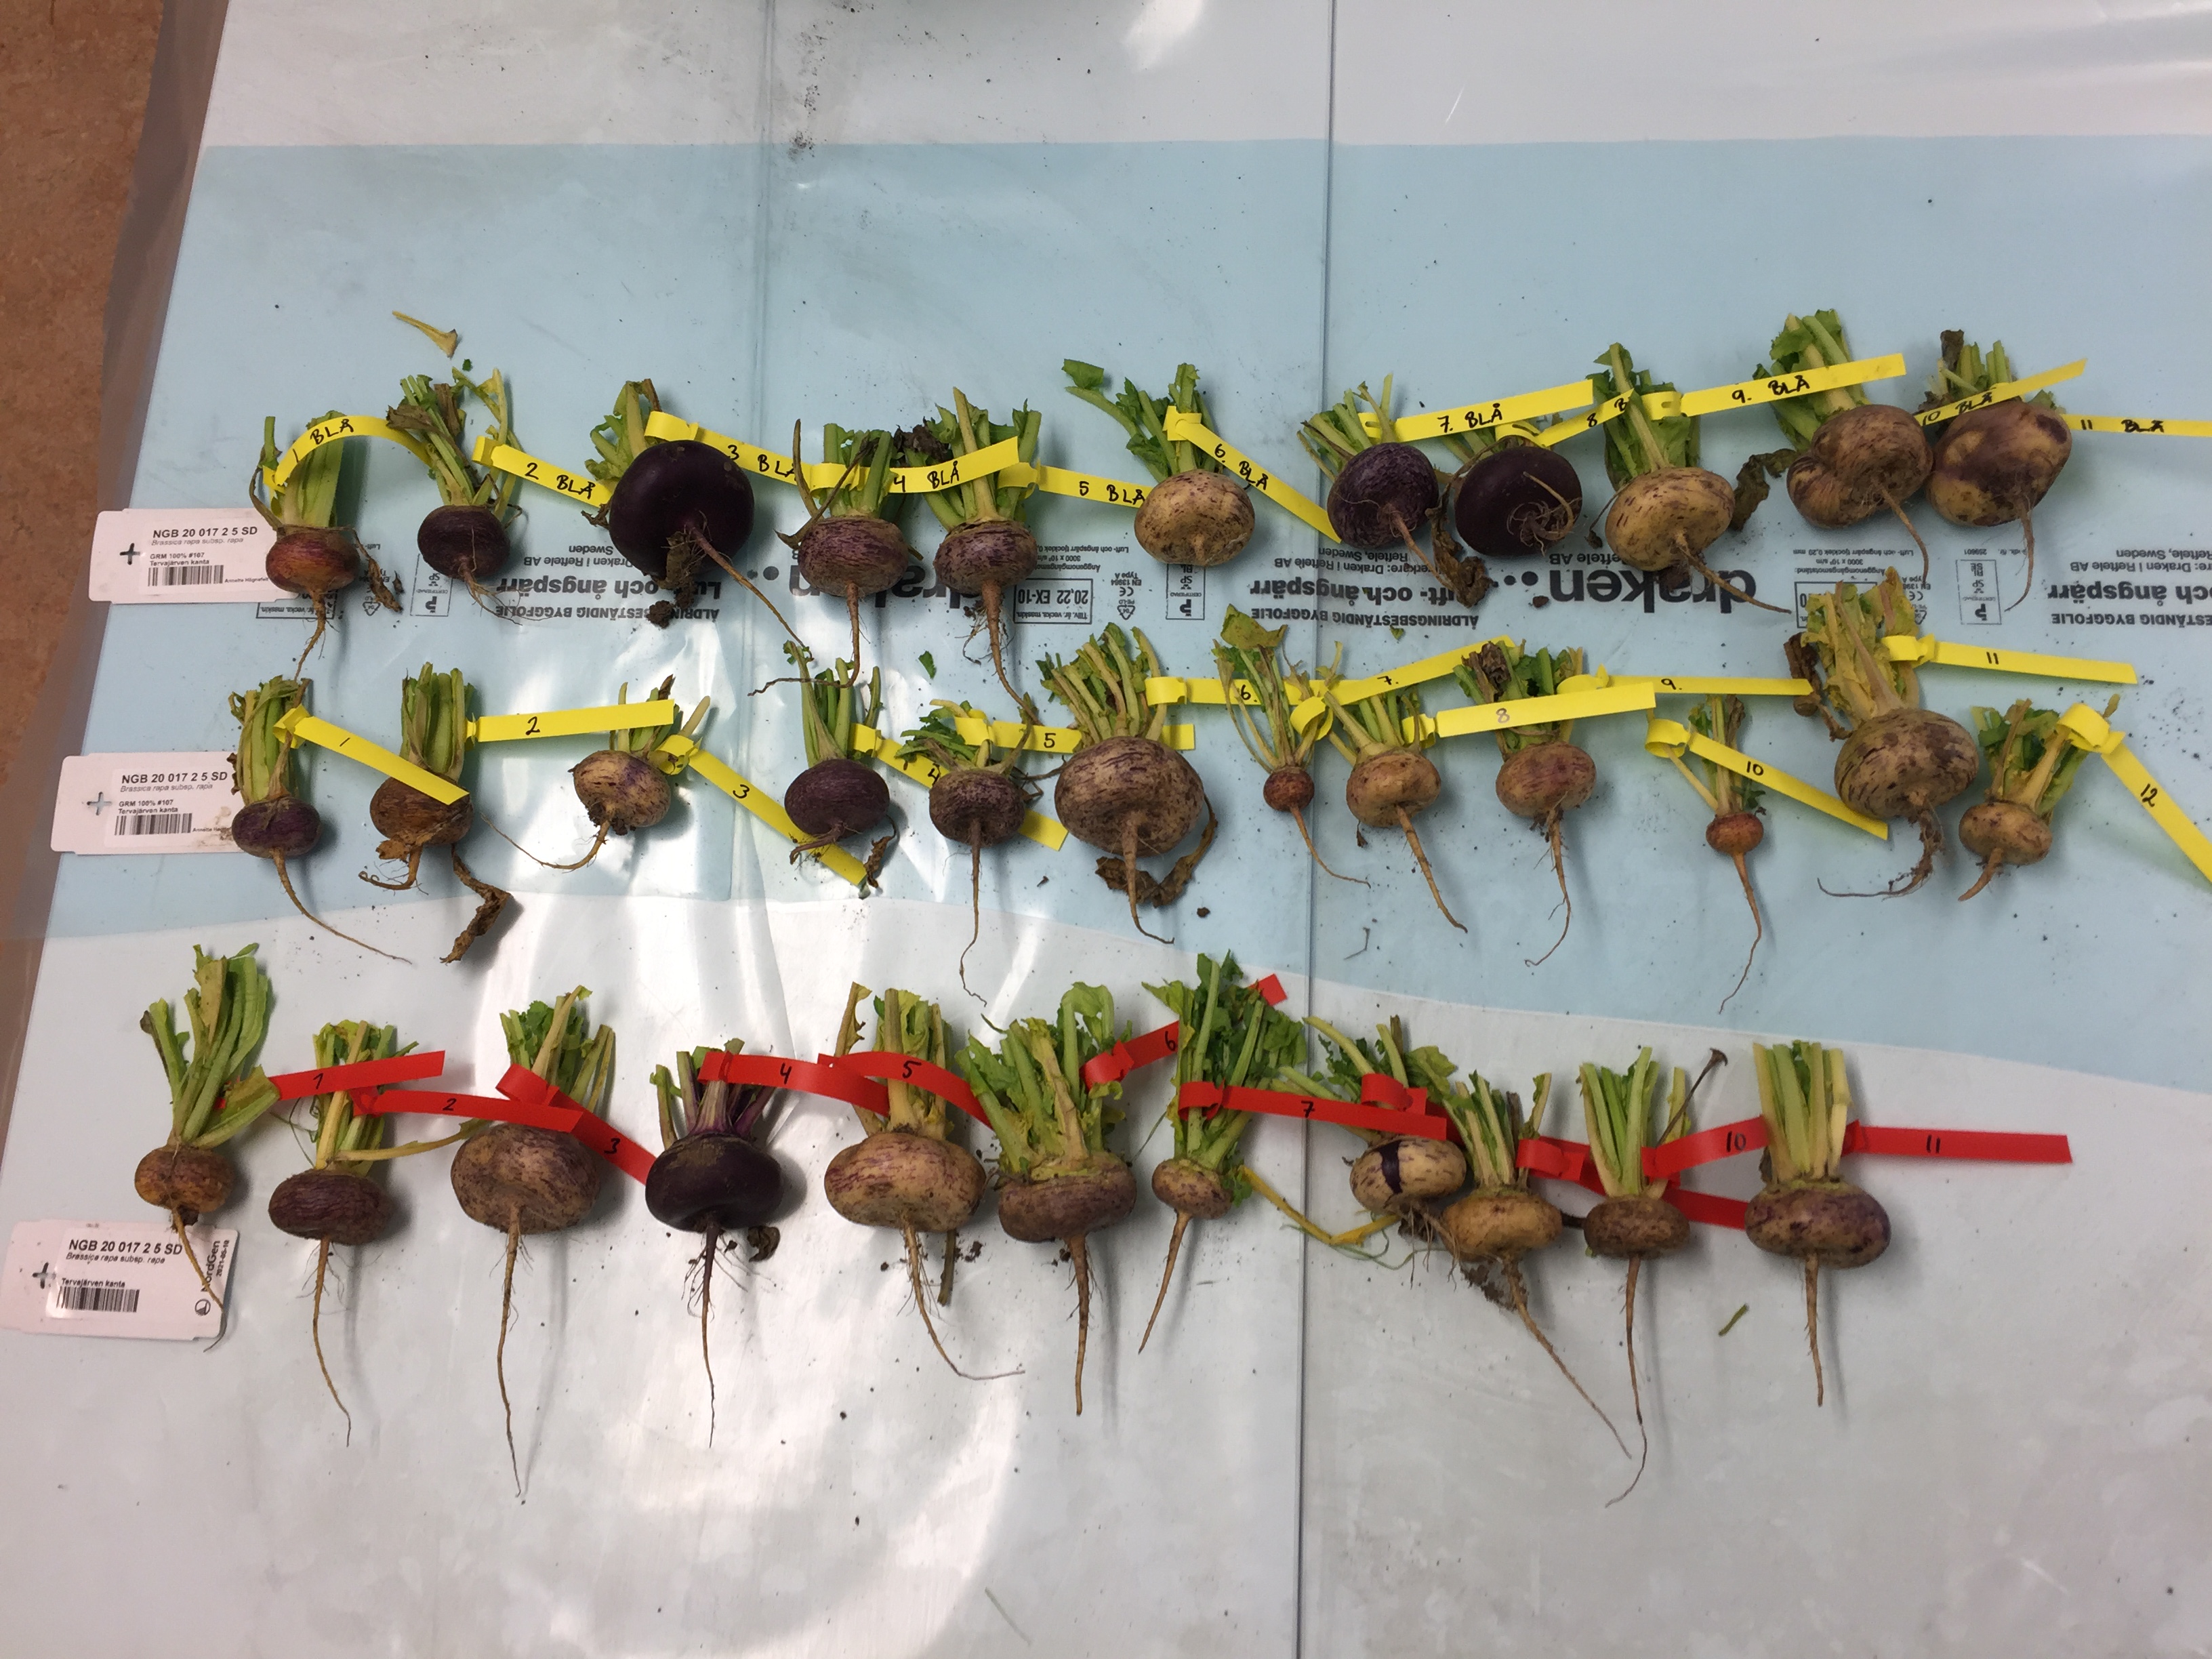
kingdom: Plantae
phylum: Tracheophyta
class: Magnoliopsida
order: Brassicales
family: Brassicaceae
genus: Brassica
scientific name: Brassica rapa
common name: Field mustard
